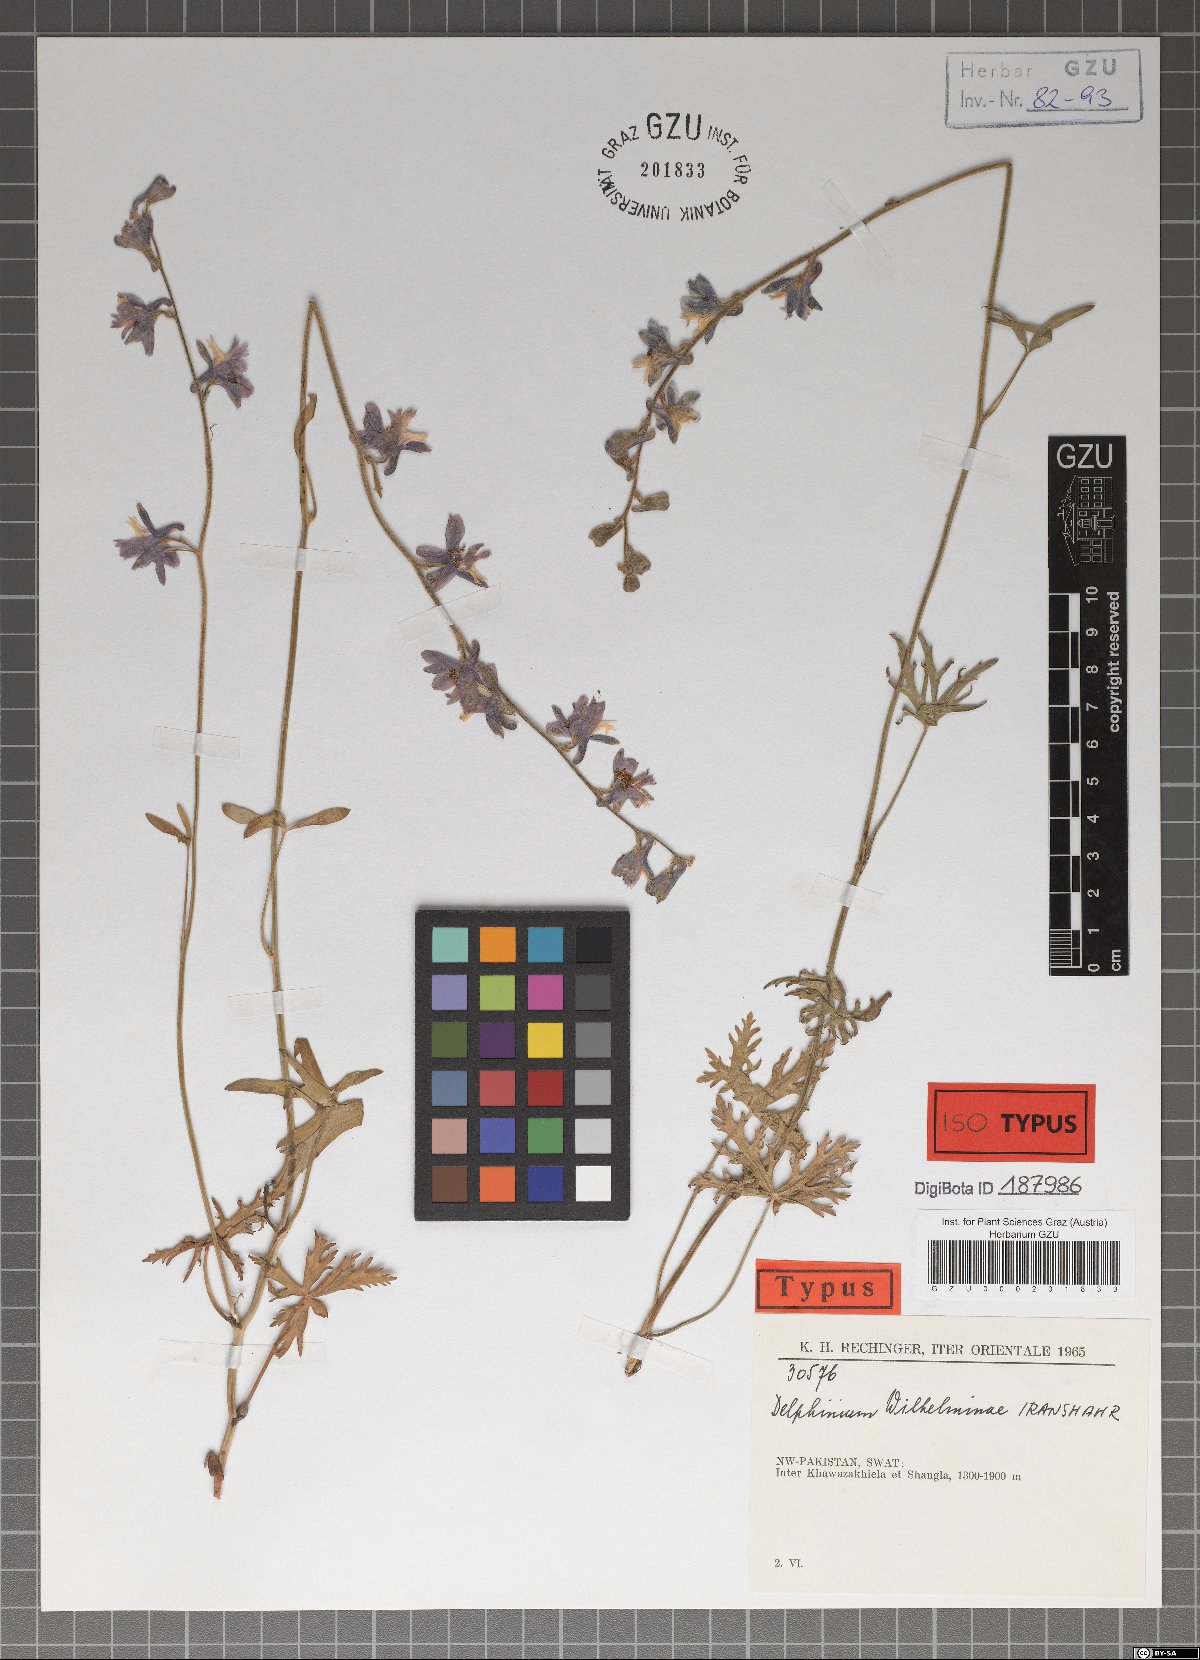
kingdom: Plantae
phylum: Tracheophyta
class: Magnoliopsida
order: Ranunculales
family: Ranunculaceae
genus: Delphinium
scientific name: Delphinium wilhelminae
